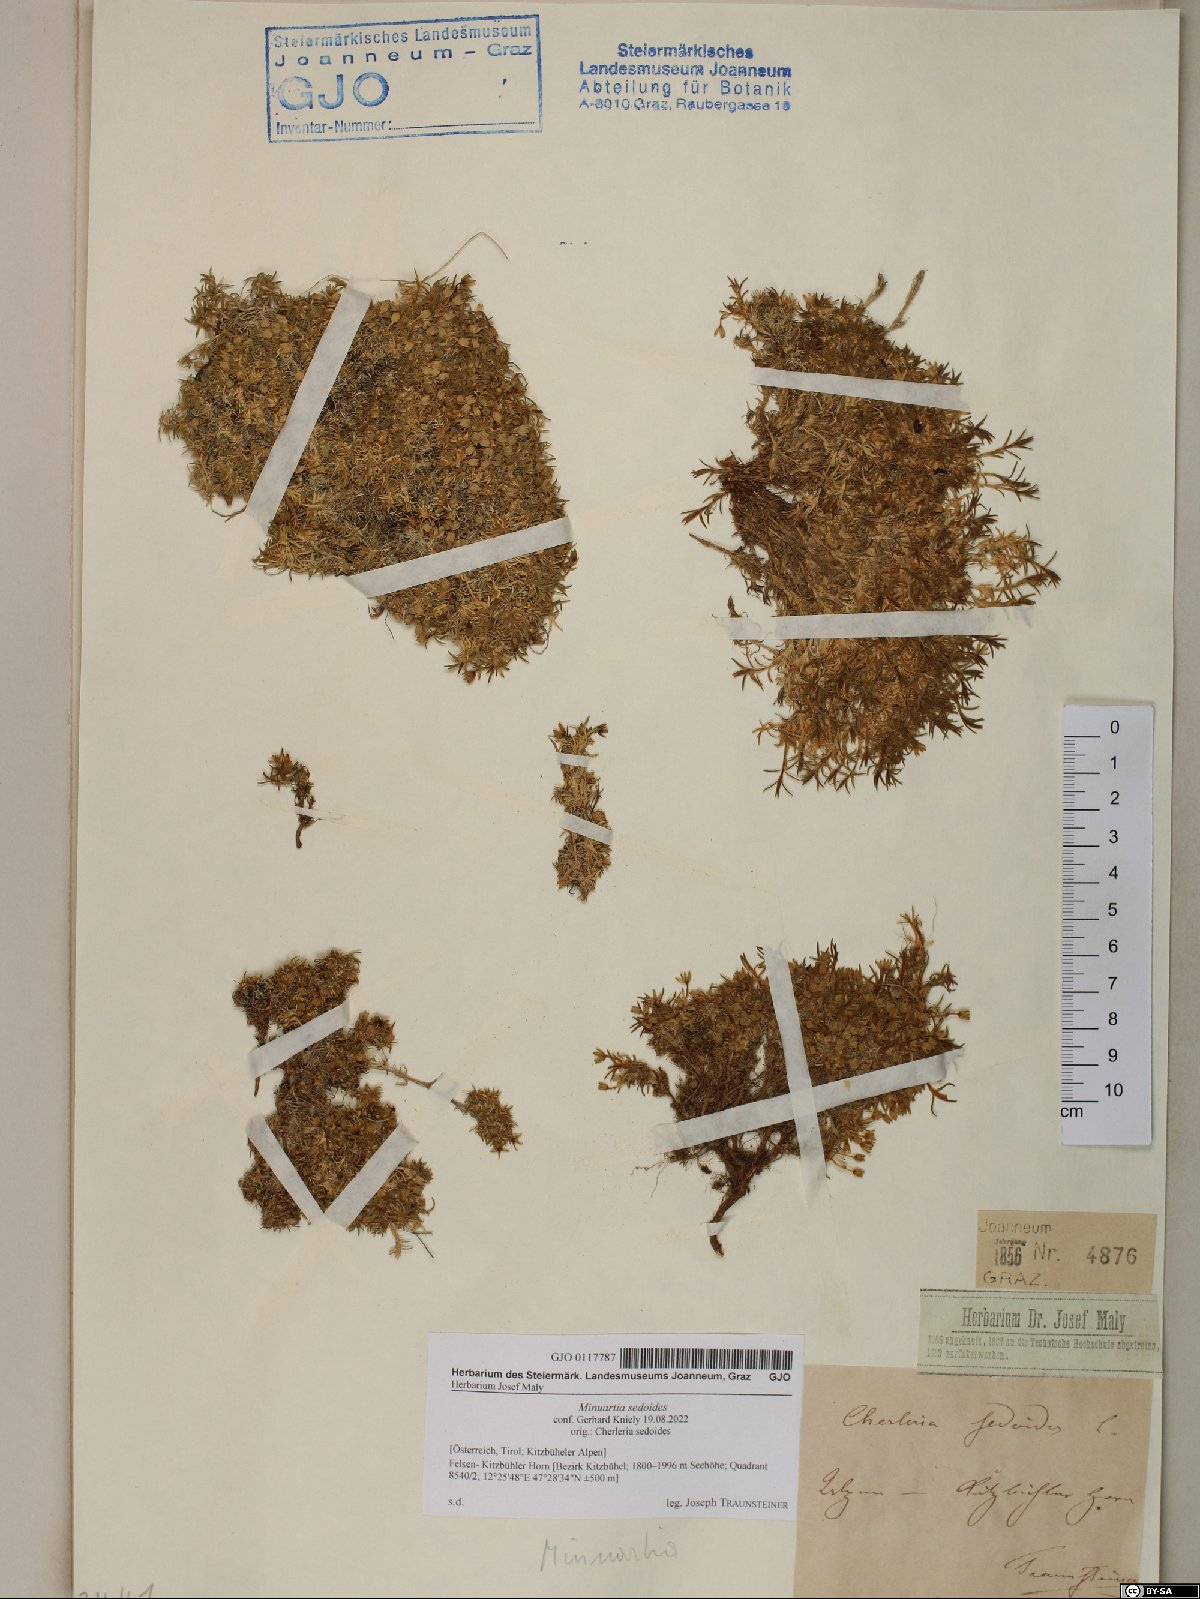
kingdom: Plantae
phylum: Tracheophyta
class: Magnoliopsida
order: Caryophyllales
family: Caryophyllaceae
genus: Cherleria
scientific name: Cherleria sedoides
